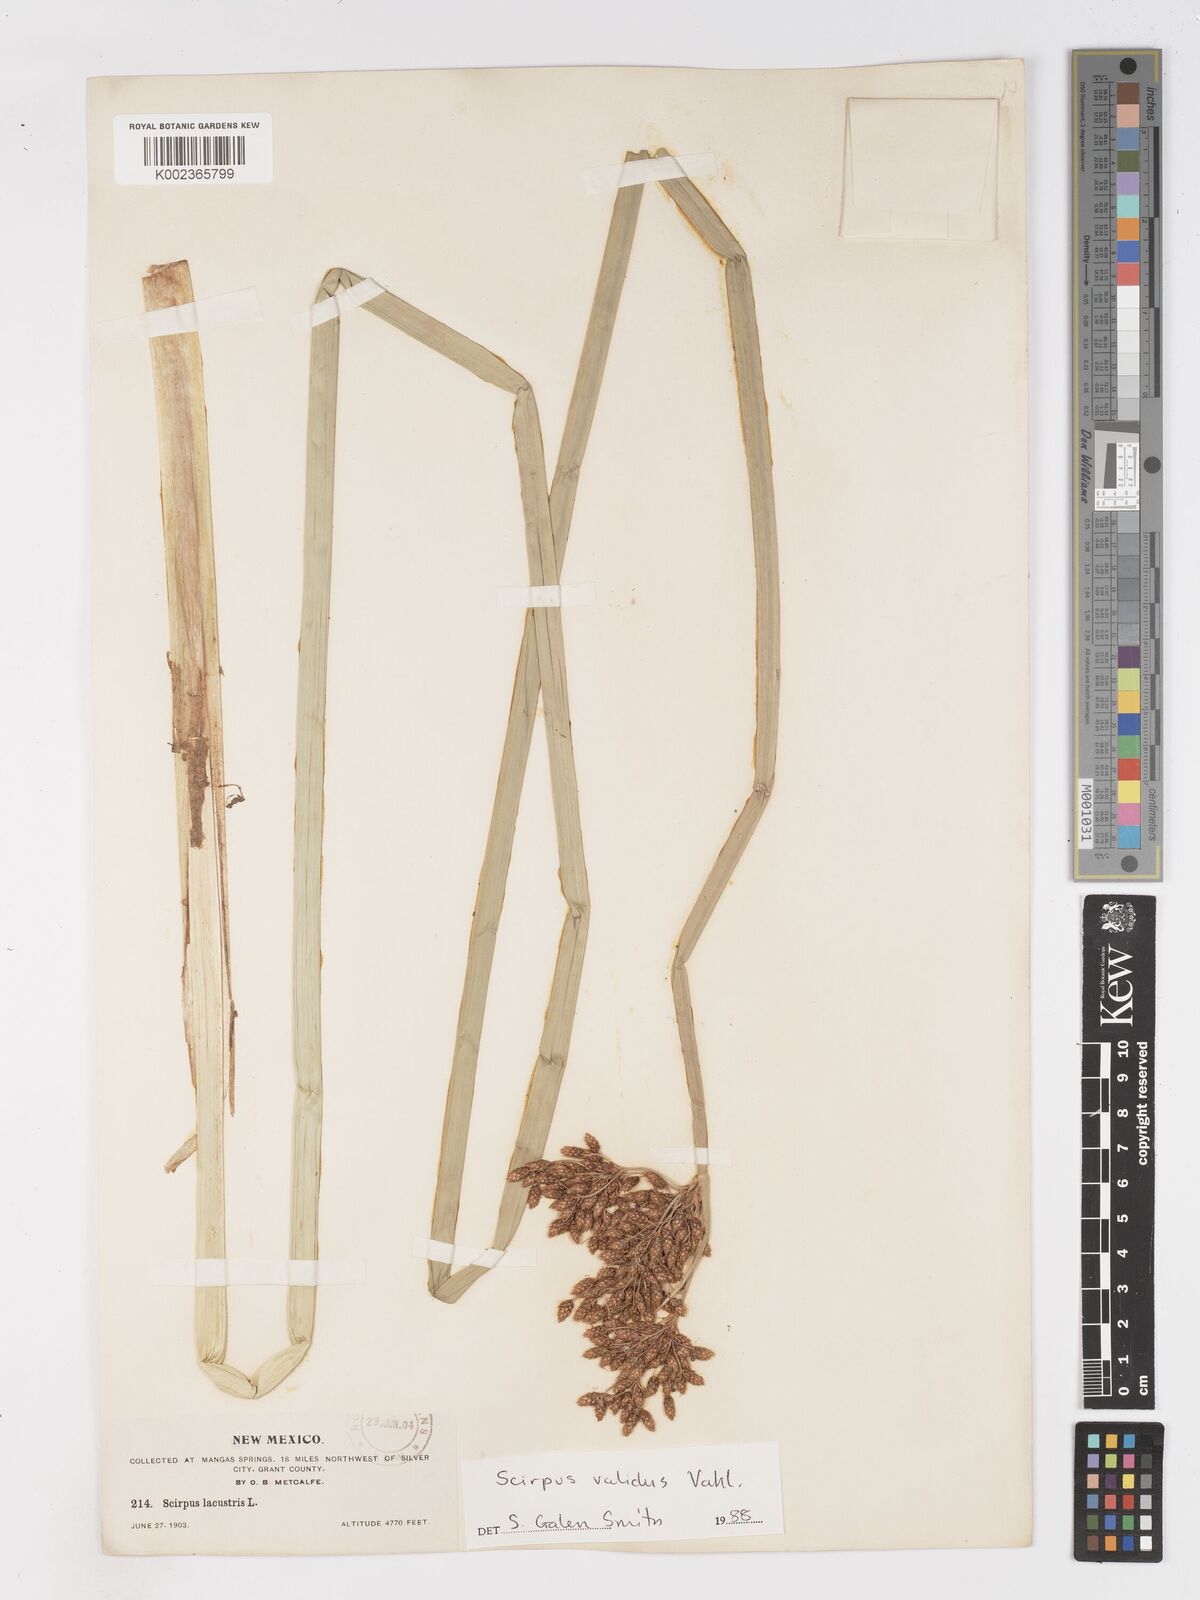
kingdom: Plantae
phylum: Tracheophyta
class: Liliopsida
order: Poales
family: Cyperaceae
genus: Schoenoplectus
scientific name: Schoenoplectus lacustris
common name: Common club-rush
